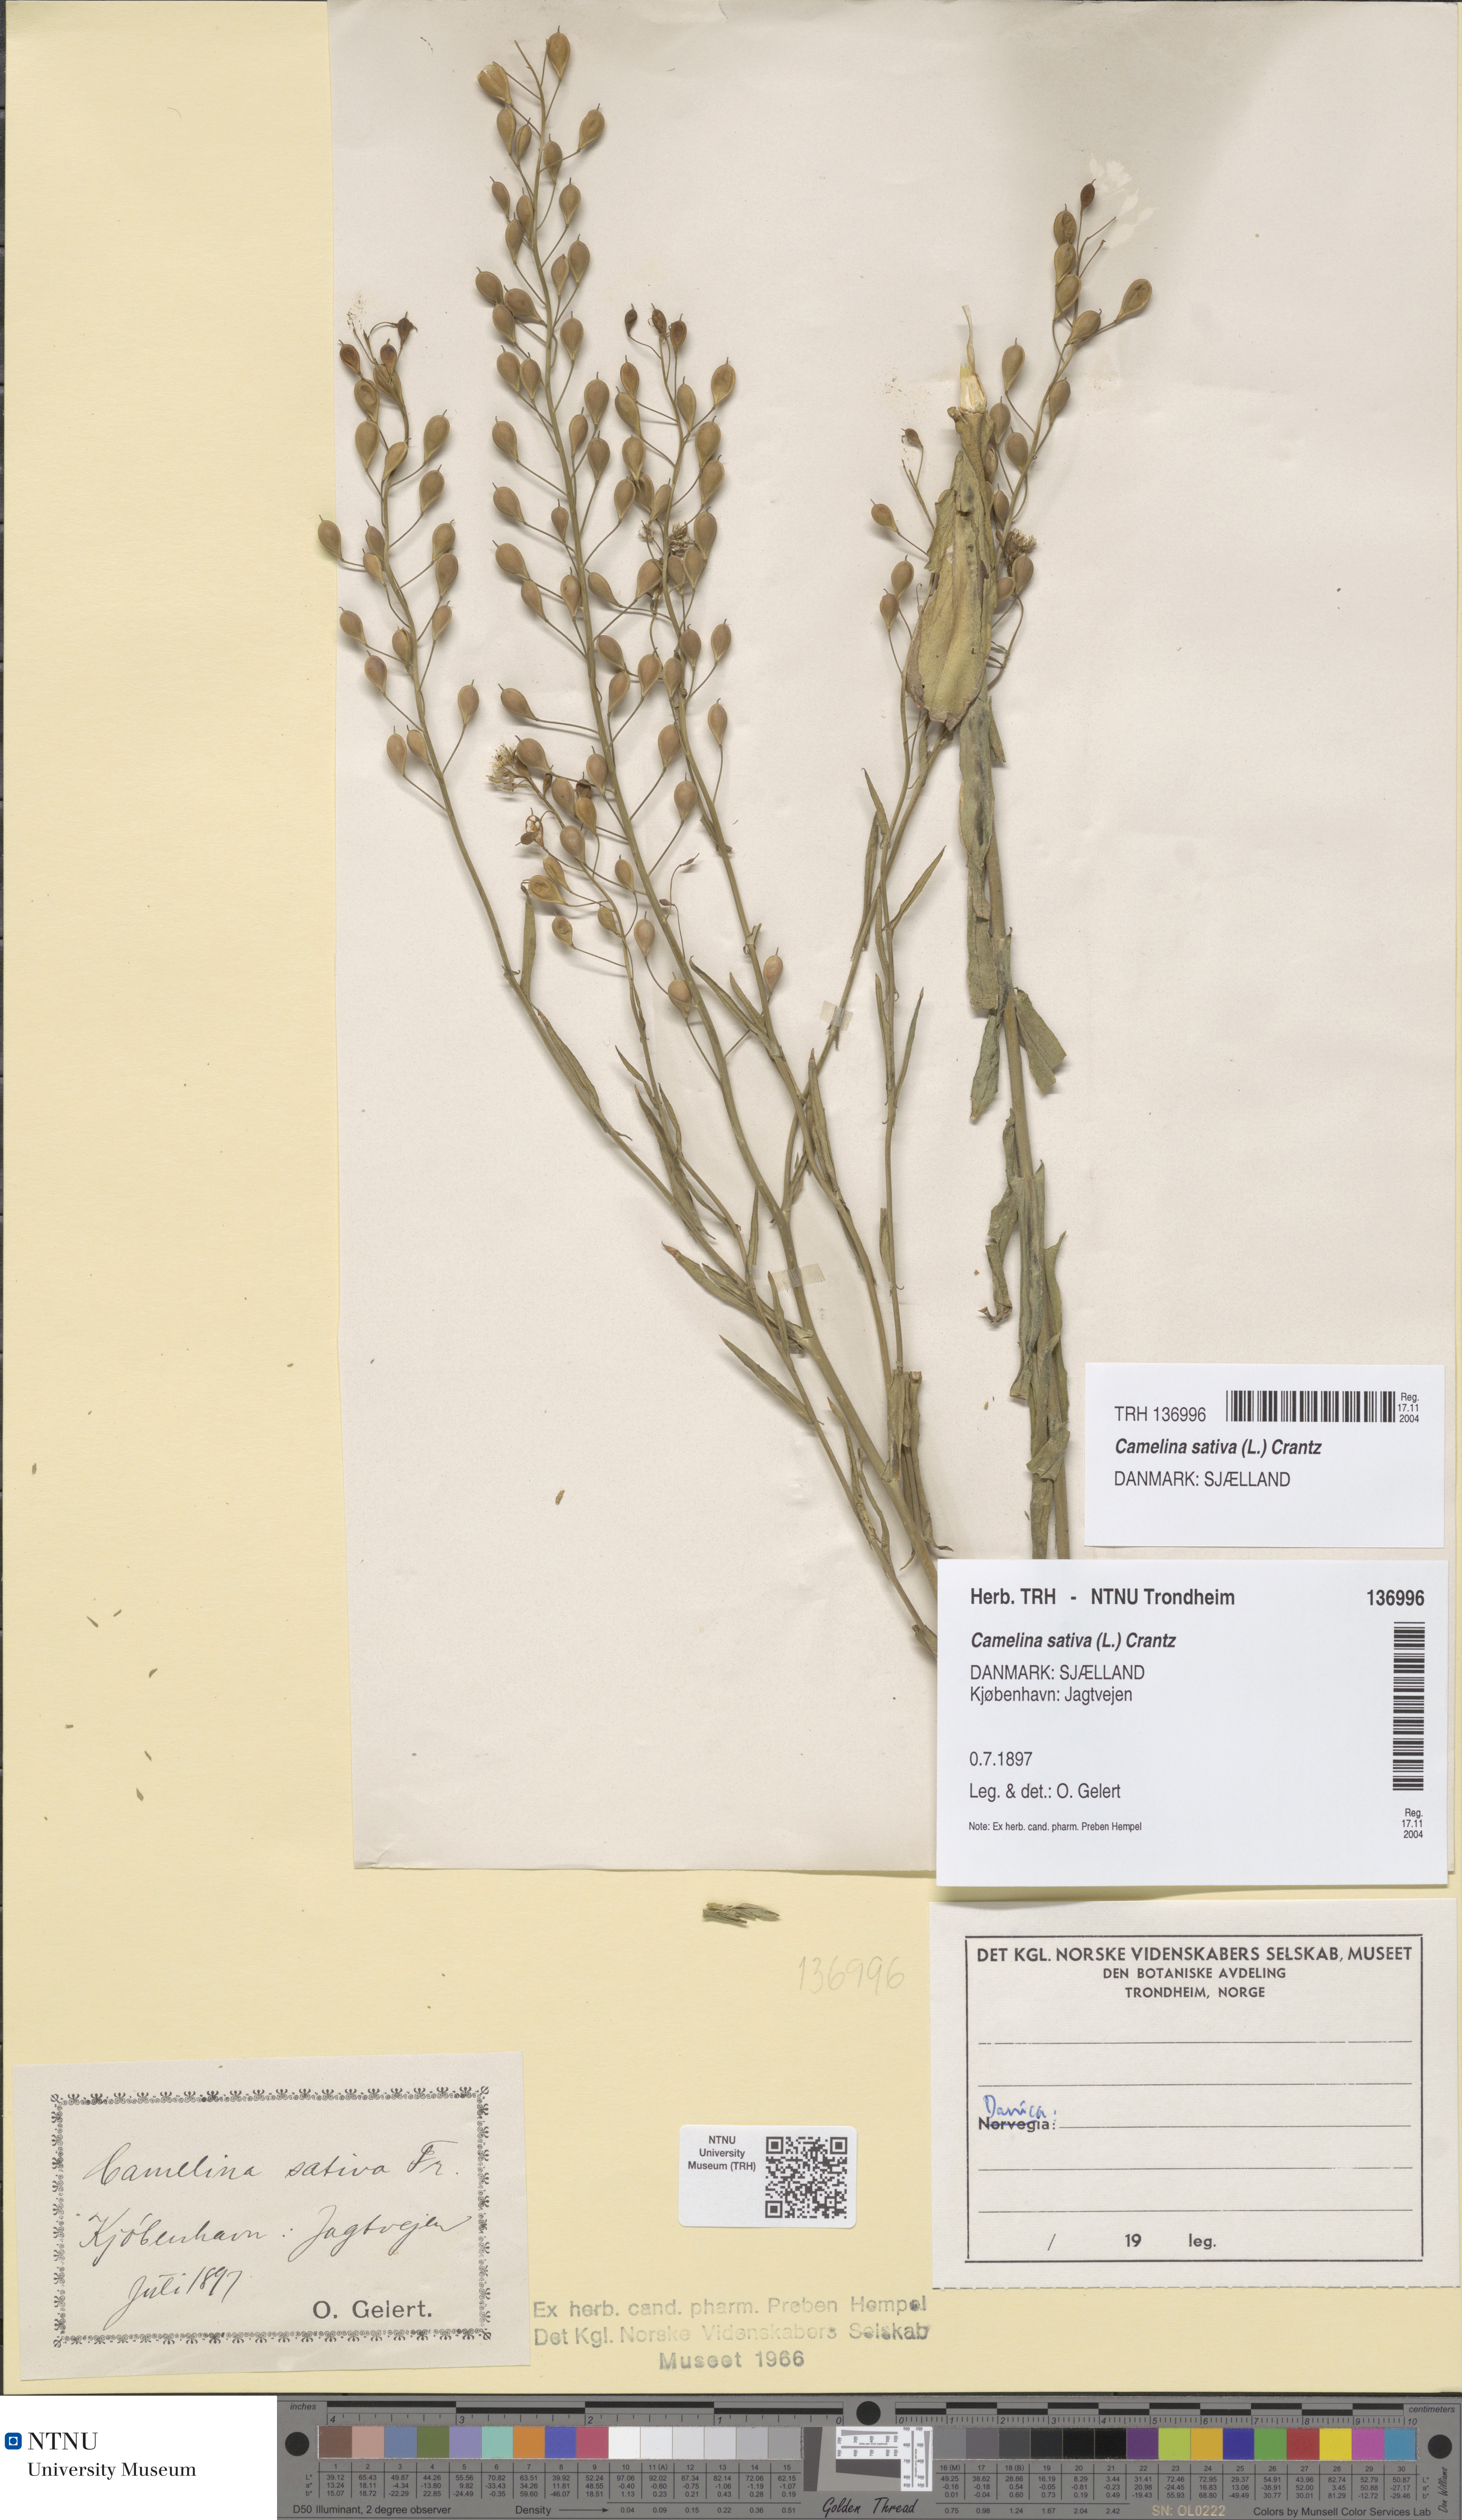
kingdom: Plantae
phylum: Tracheophyta
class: Magnoliopsida
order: Brassicales
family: Brassicaceae
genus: Camelina
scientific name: Camelina sativa
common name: Gold-of-pleasure
